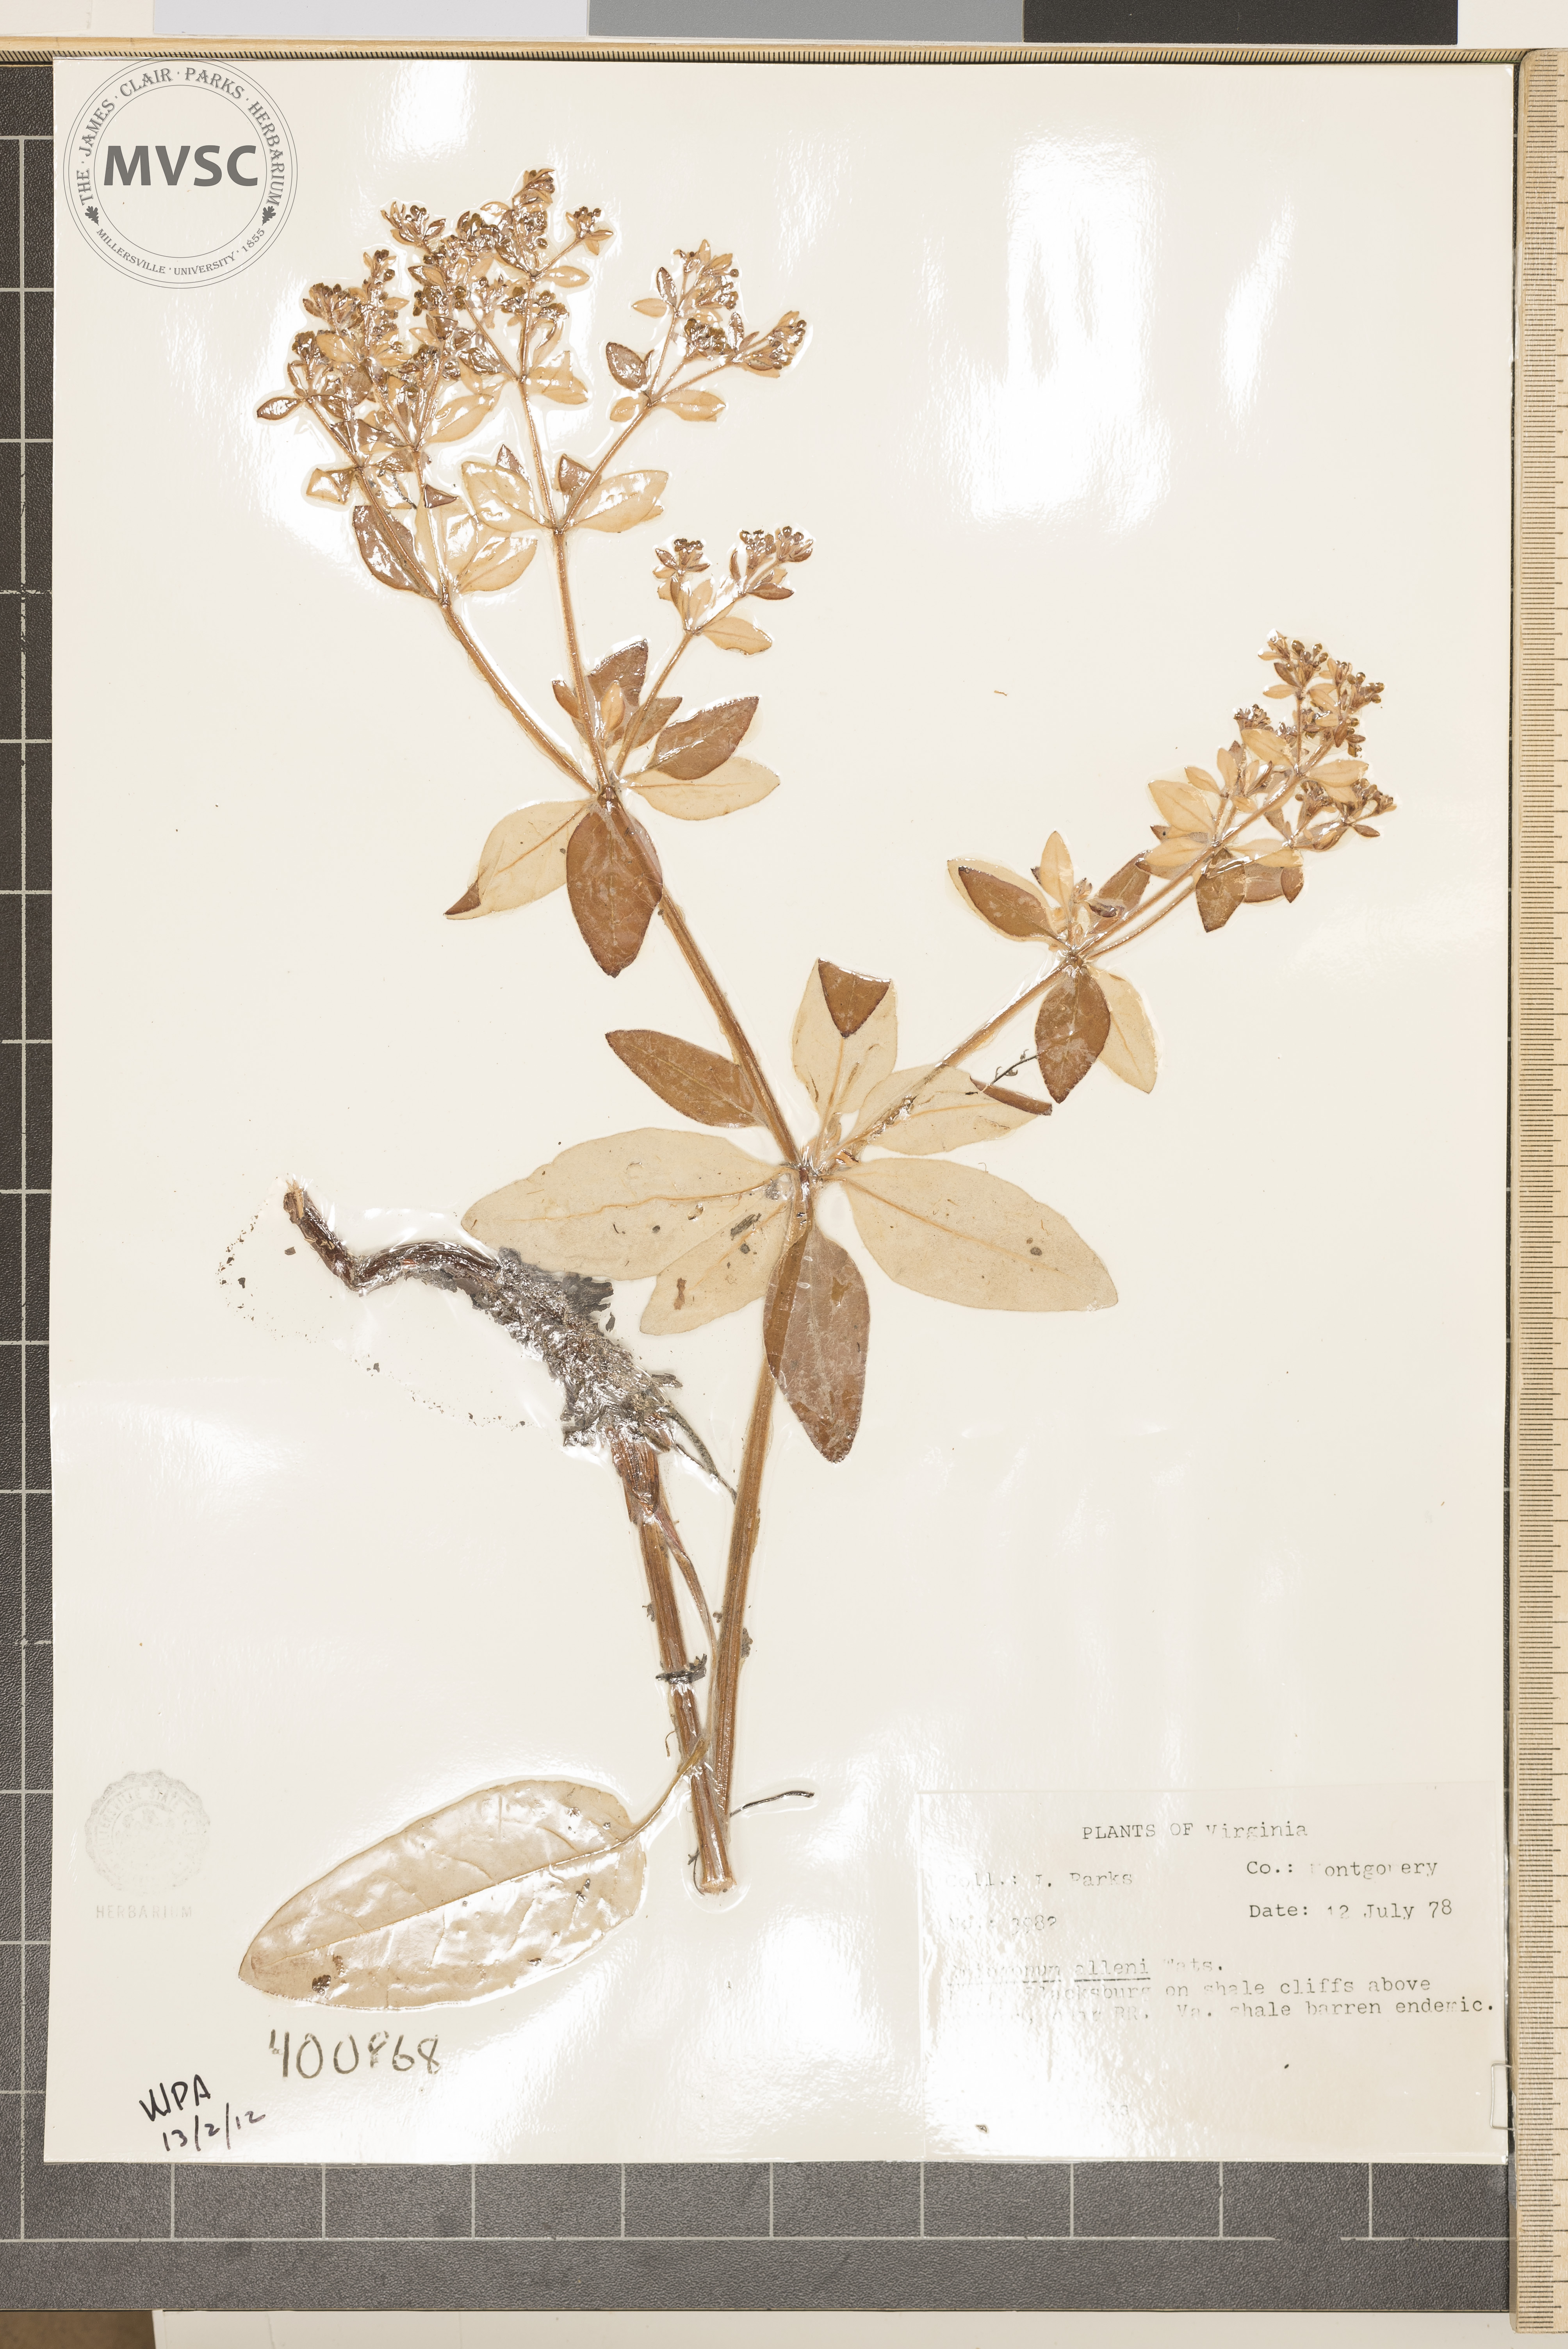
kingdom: Plantae
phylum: Tracheophyta
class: Magnoliopsida
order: Caryophyllales
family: Polygonaceae
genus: Eriogonum
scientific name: Eriogonum allenii
